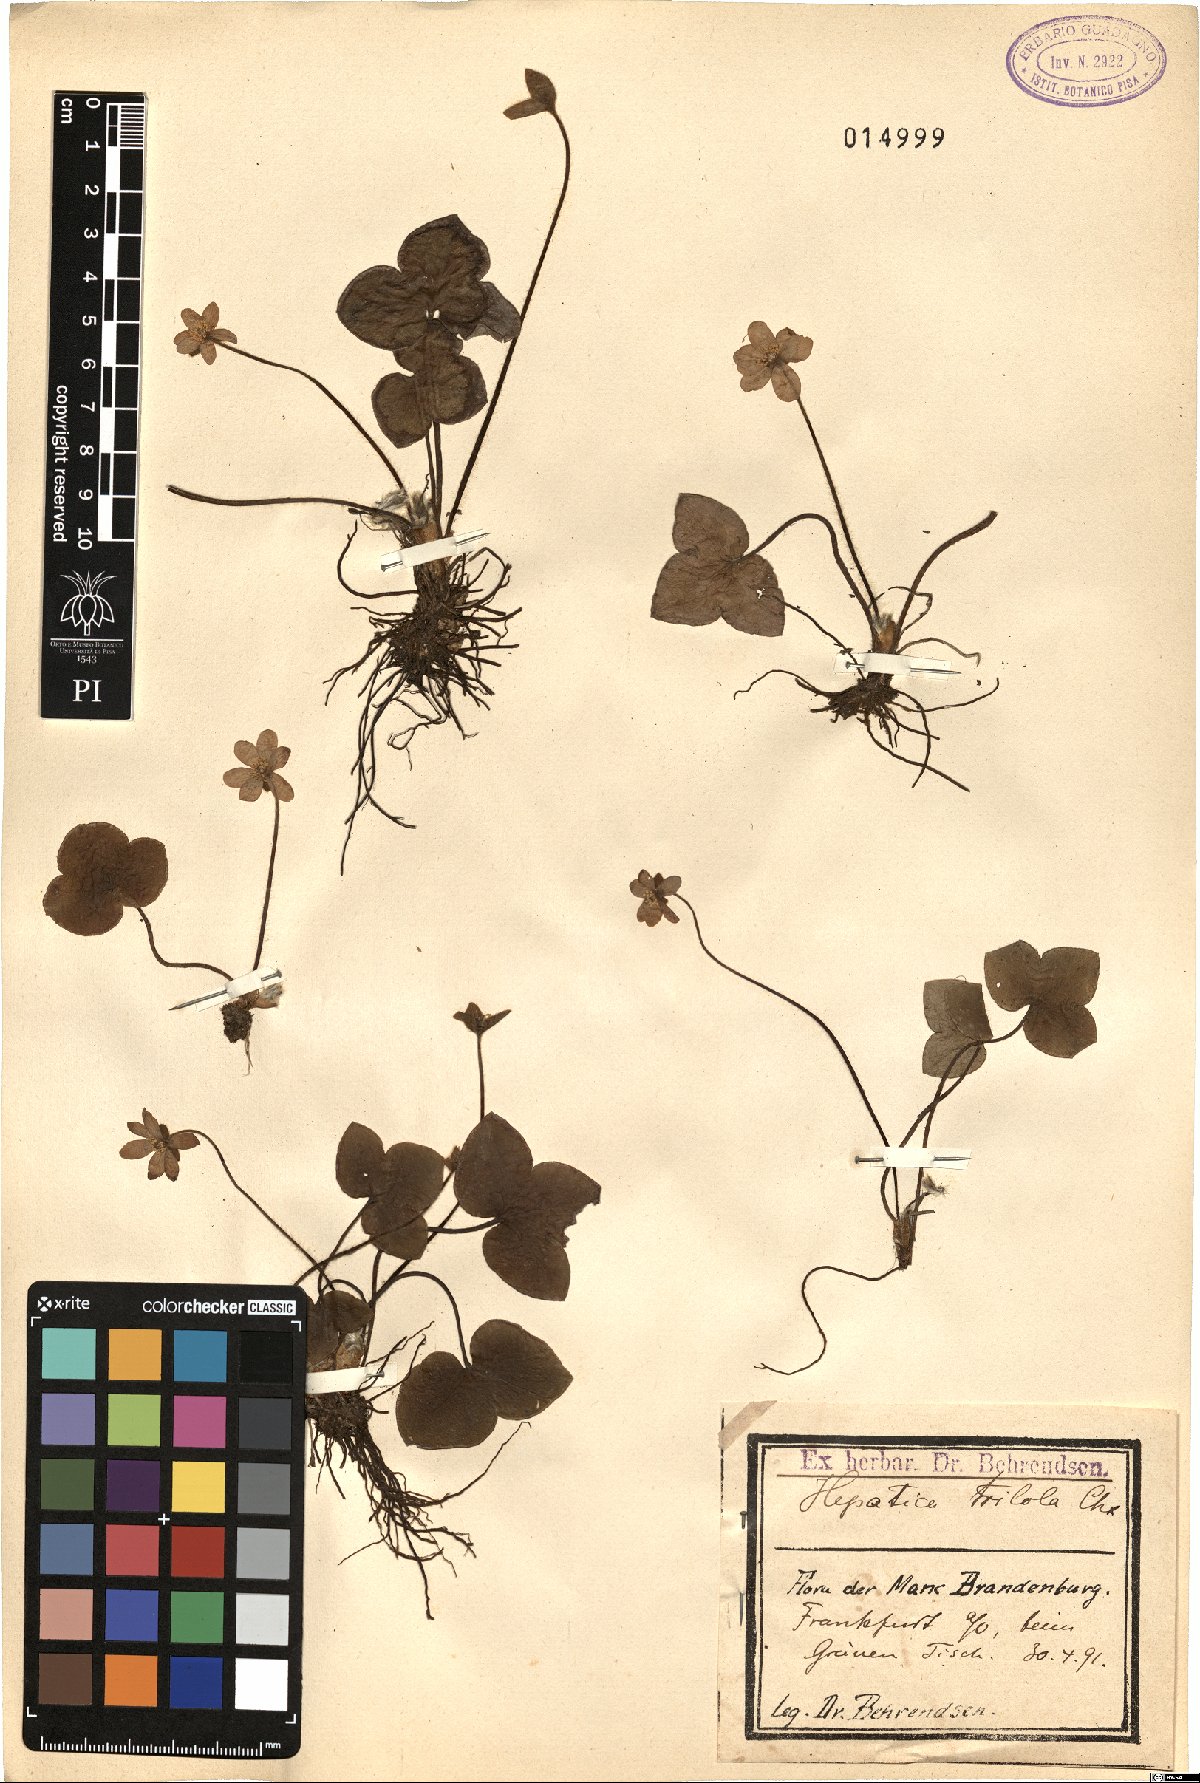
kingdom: Plantae
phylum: Tracheophyta
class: Magnoliopsida
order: Ranunculales
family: Ranunculaceae
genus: Hepatica
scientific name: Hepatica nobilis
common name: Liverleaf
